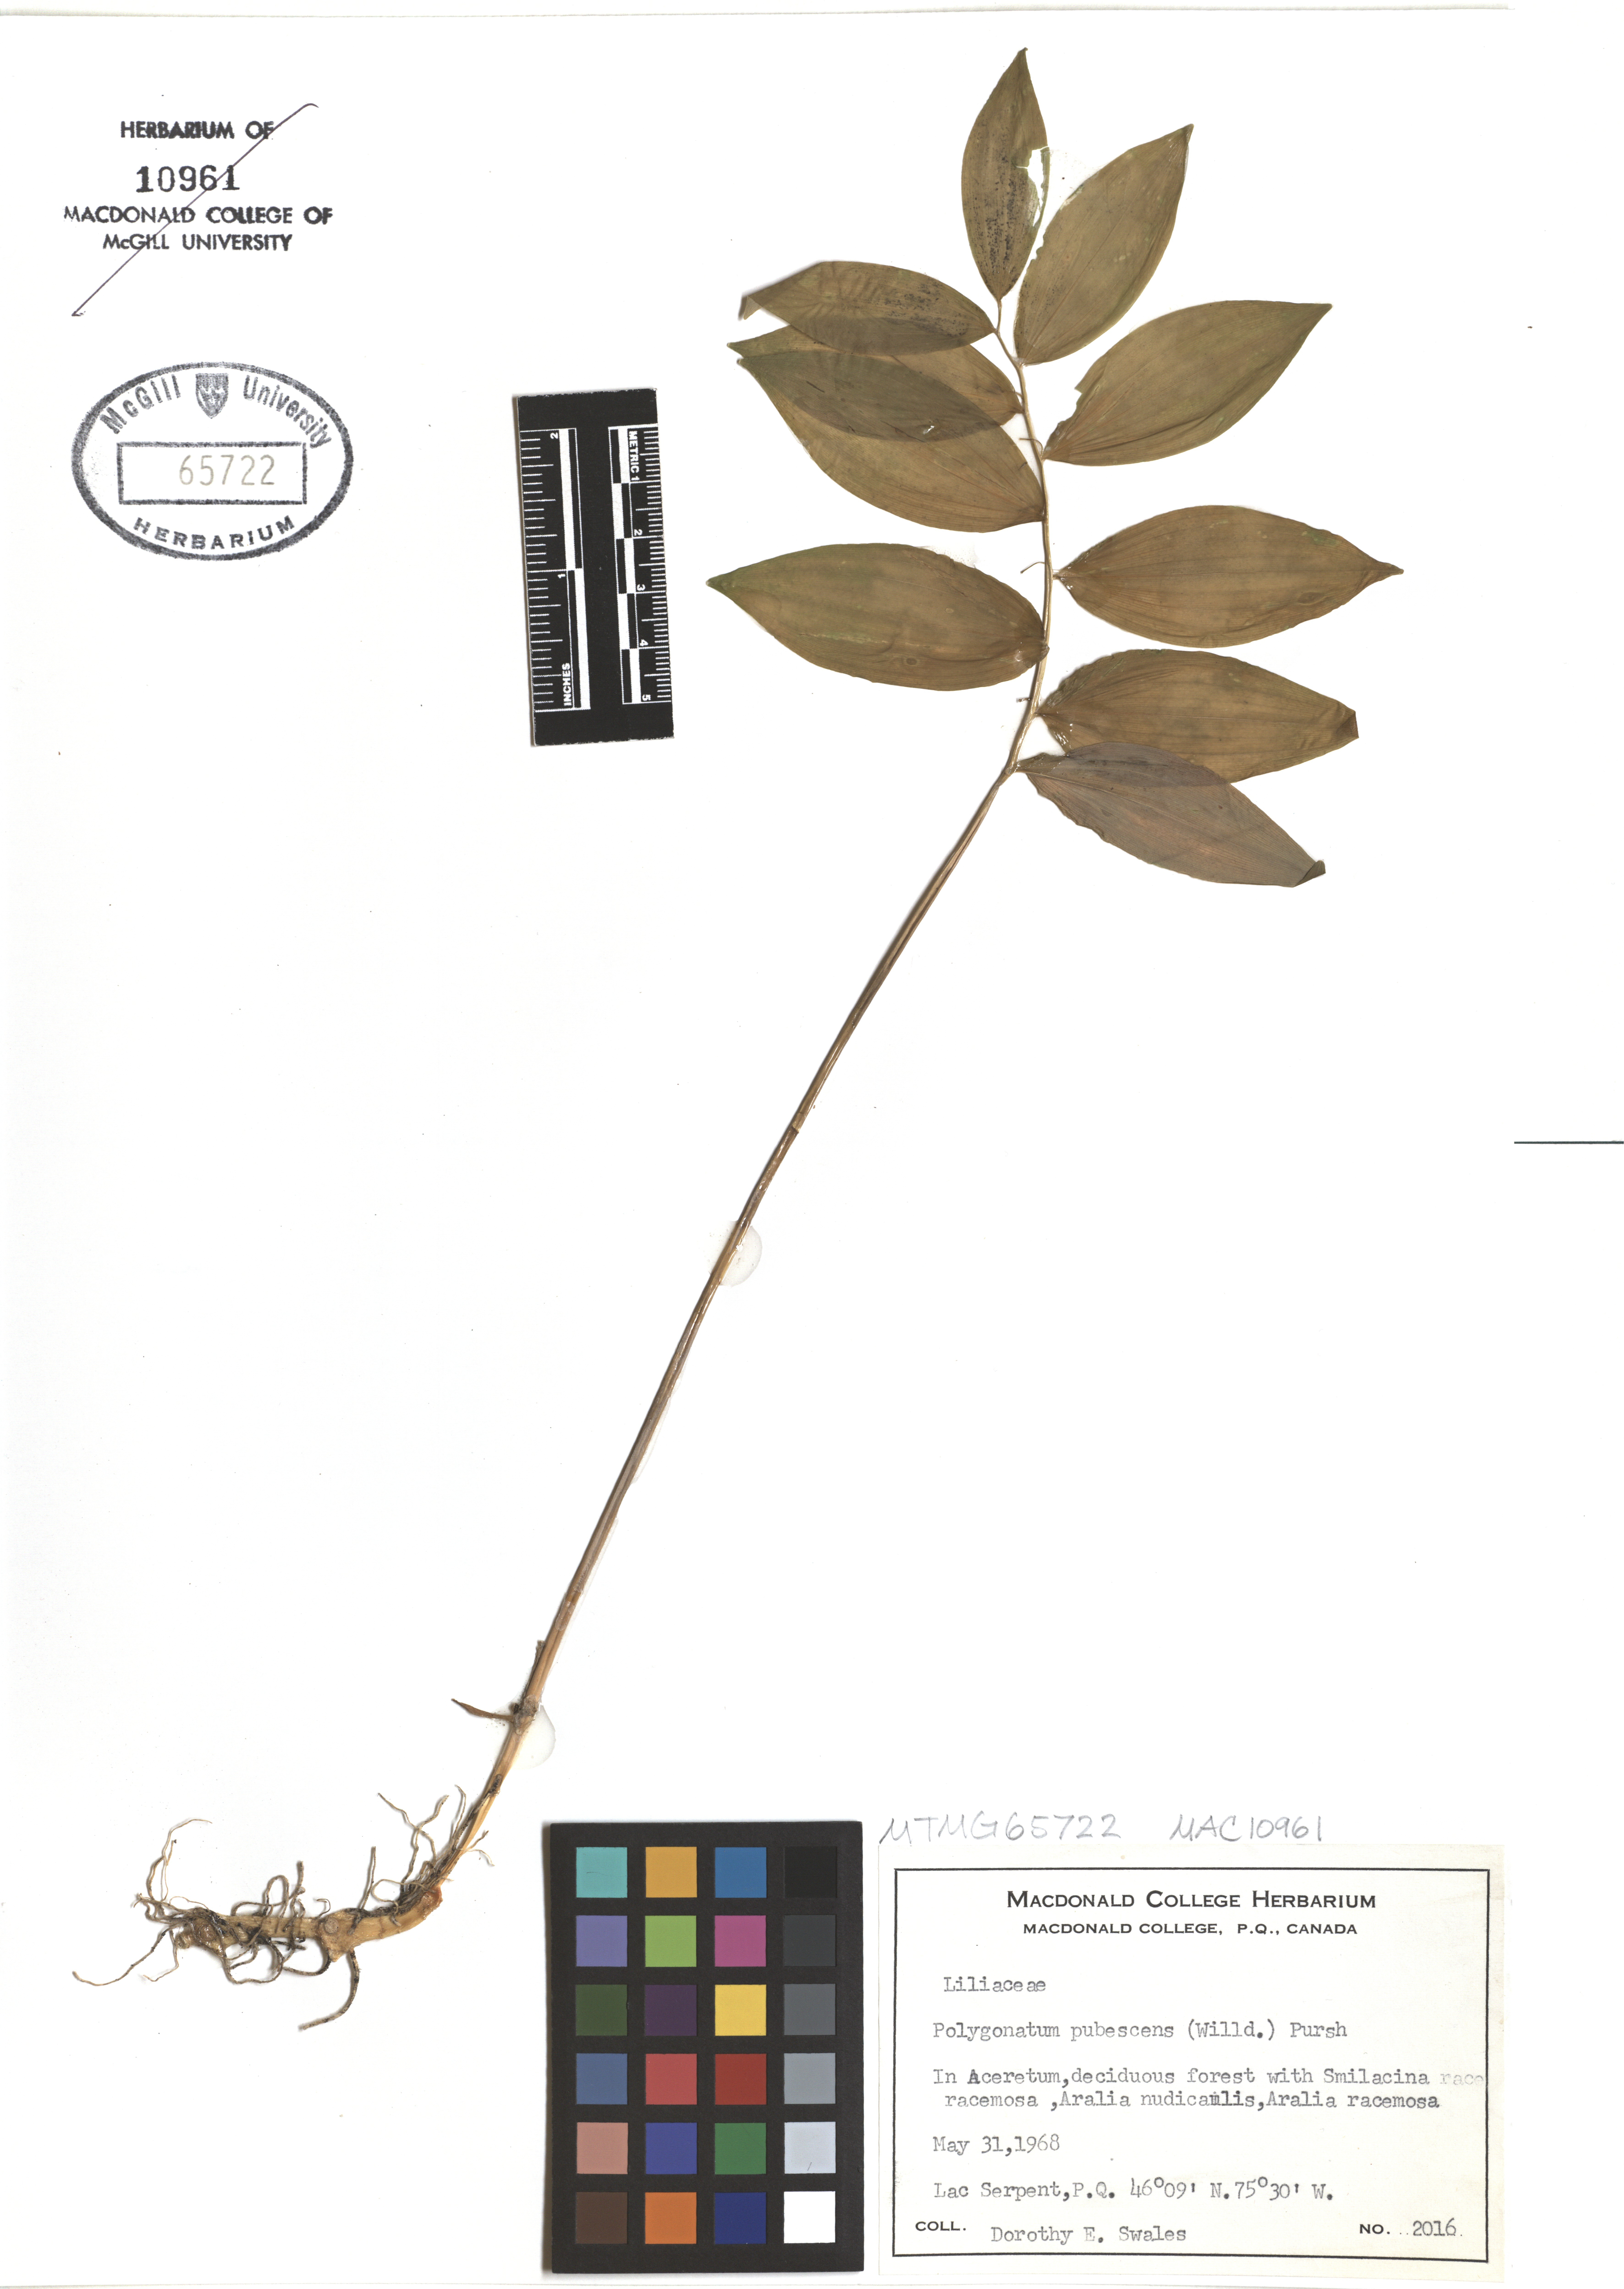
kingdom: Plantae
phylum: Tracheophyta
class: Liliopsida
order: Asparagales
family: Asparagaceae
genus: Polygonatum
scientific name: Polygonatum pubescens
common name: Downy solomon's seal
